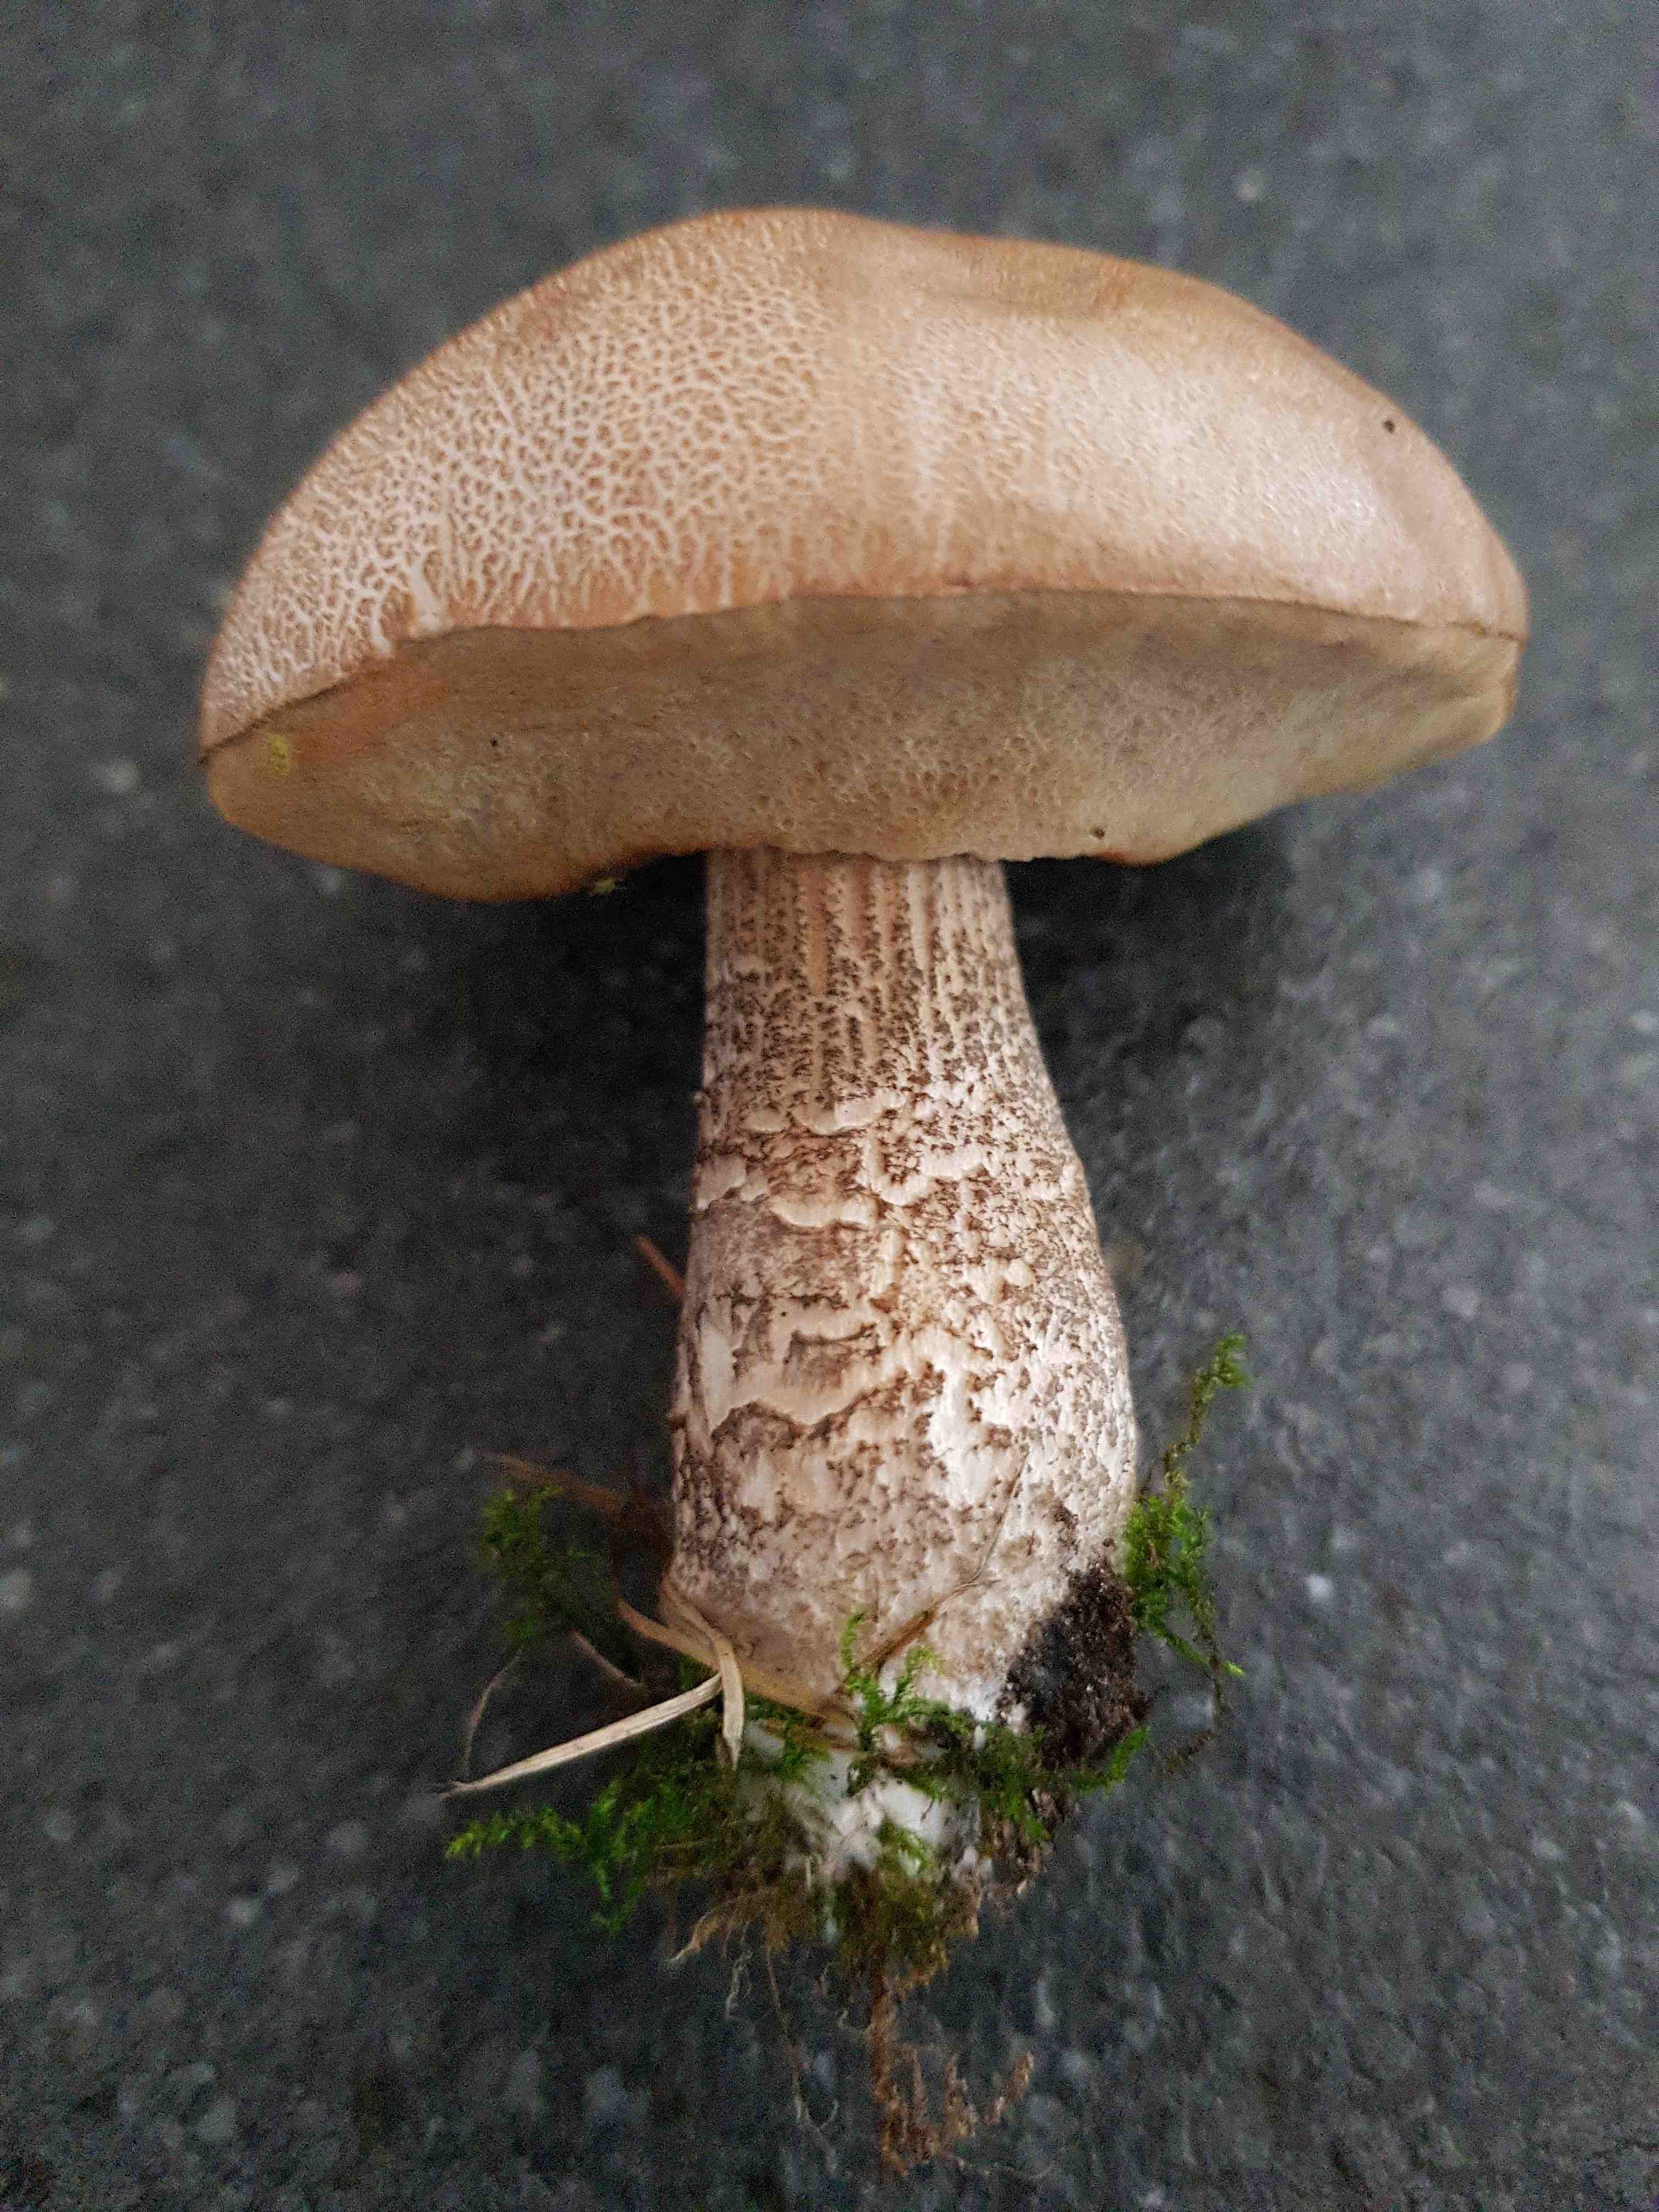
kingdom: Fungi
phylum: Basidiomycota
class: Agaricomycetes
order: Boletales
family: Boletaceae
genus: Leccinum
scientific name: Leccinum scabrum
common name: brun skælrørhat
